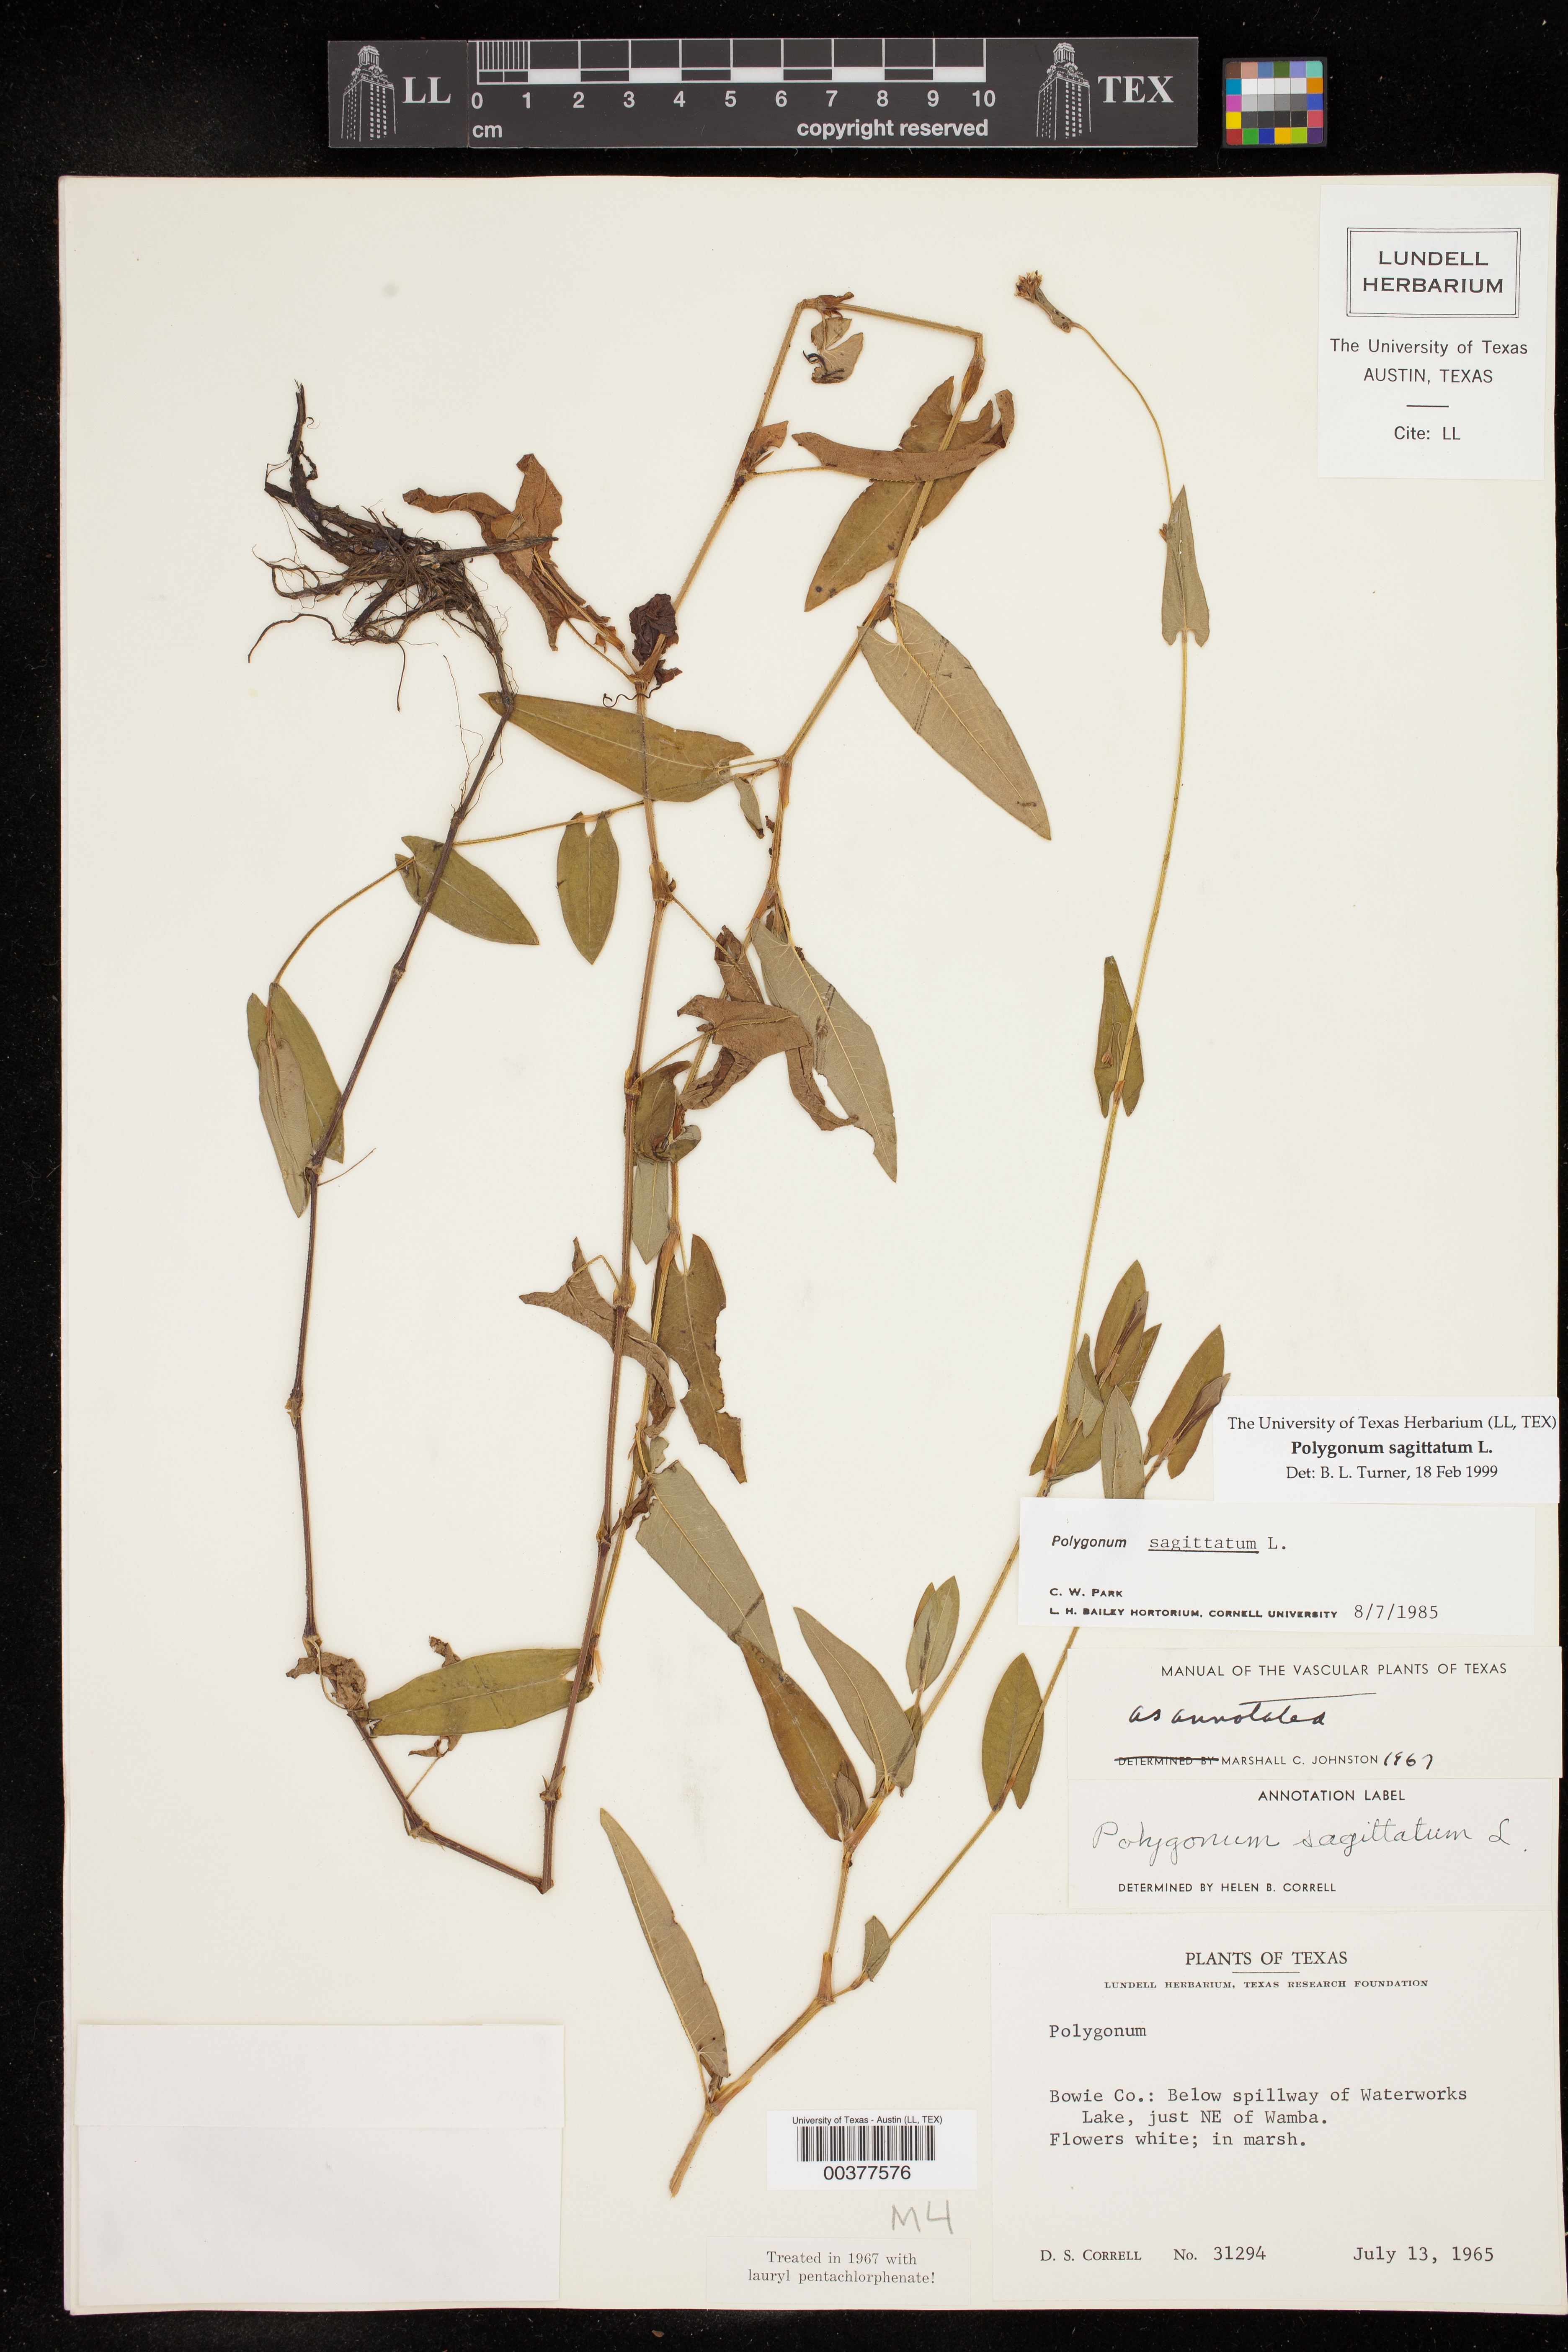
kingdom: Plantae
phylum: Tracheophyta
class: Magnoliopsida
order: Caryophyllales
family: Polygonaceae
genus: Persicaria
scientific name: Persicaria sagittata
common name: American tearthumb
